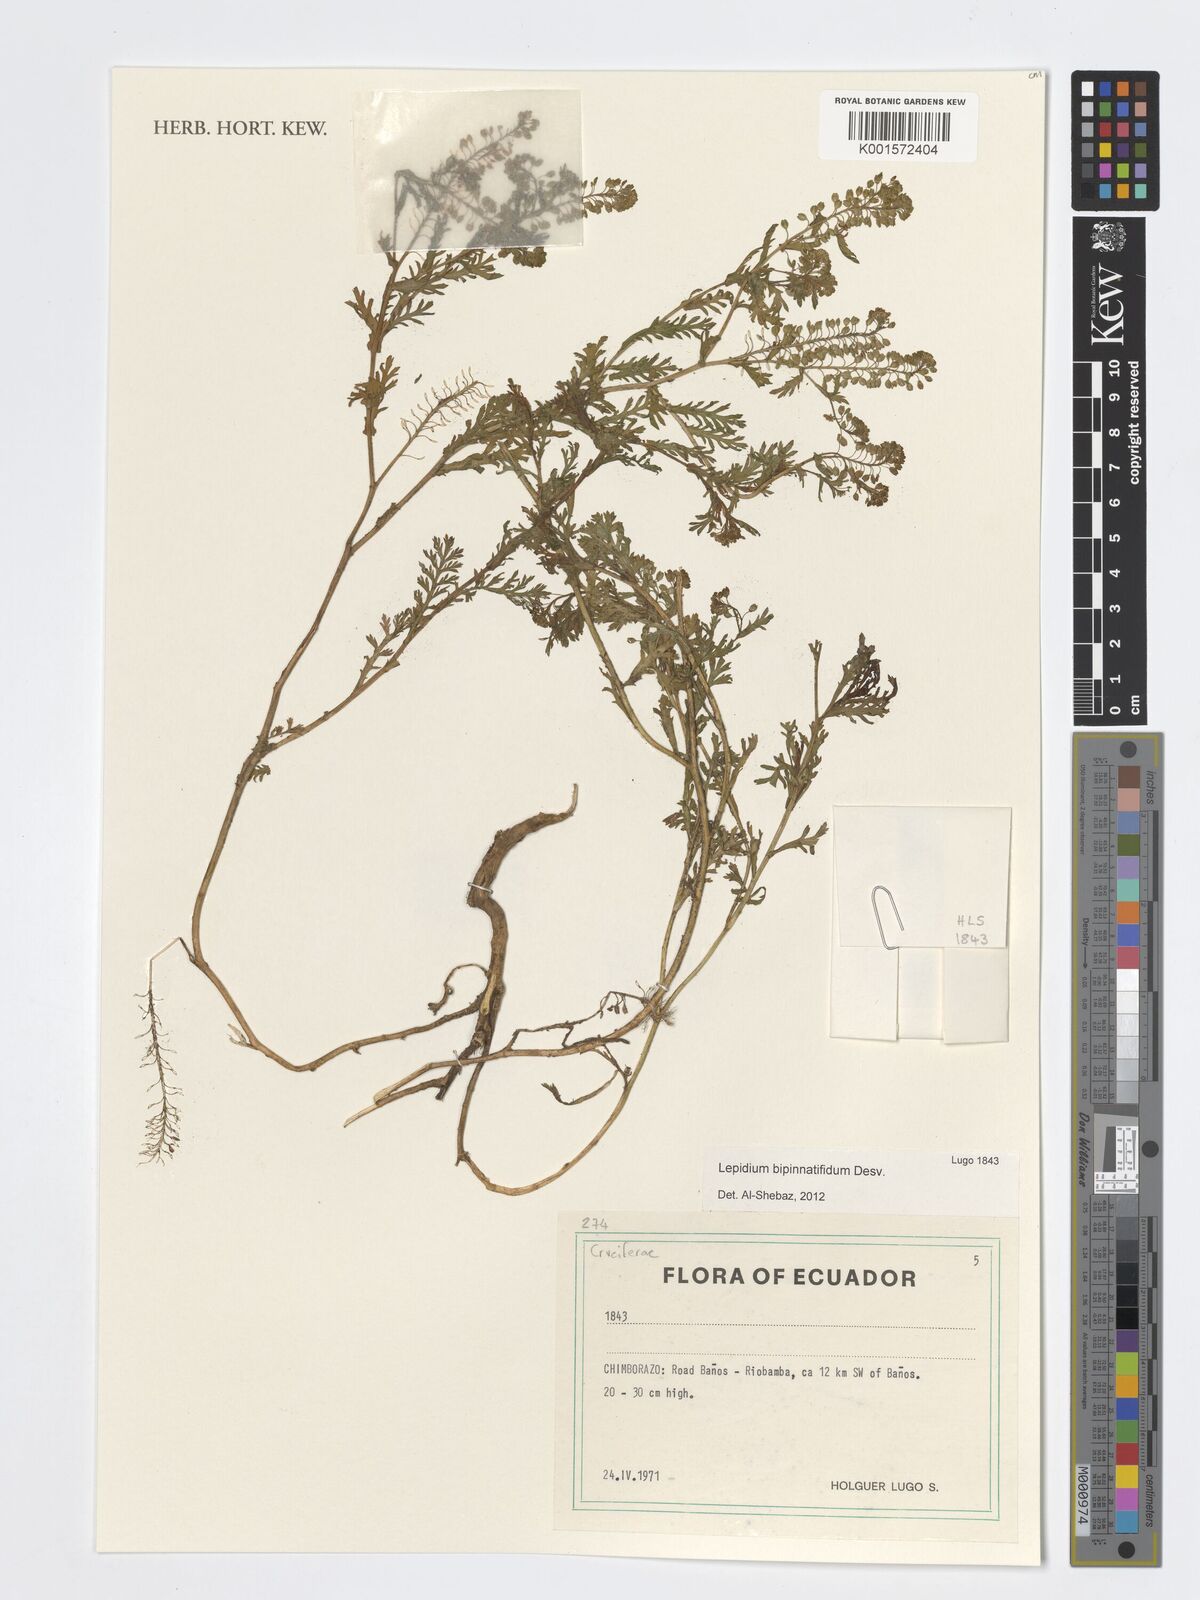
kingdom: Plantae
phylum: Tracheophyta
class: Magnoliopsida
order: Brassicales
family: Brassicaceae
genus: Lepidium
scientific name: Lepidium bipinnatifidum
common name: Wayside pepperwort
